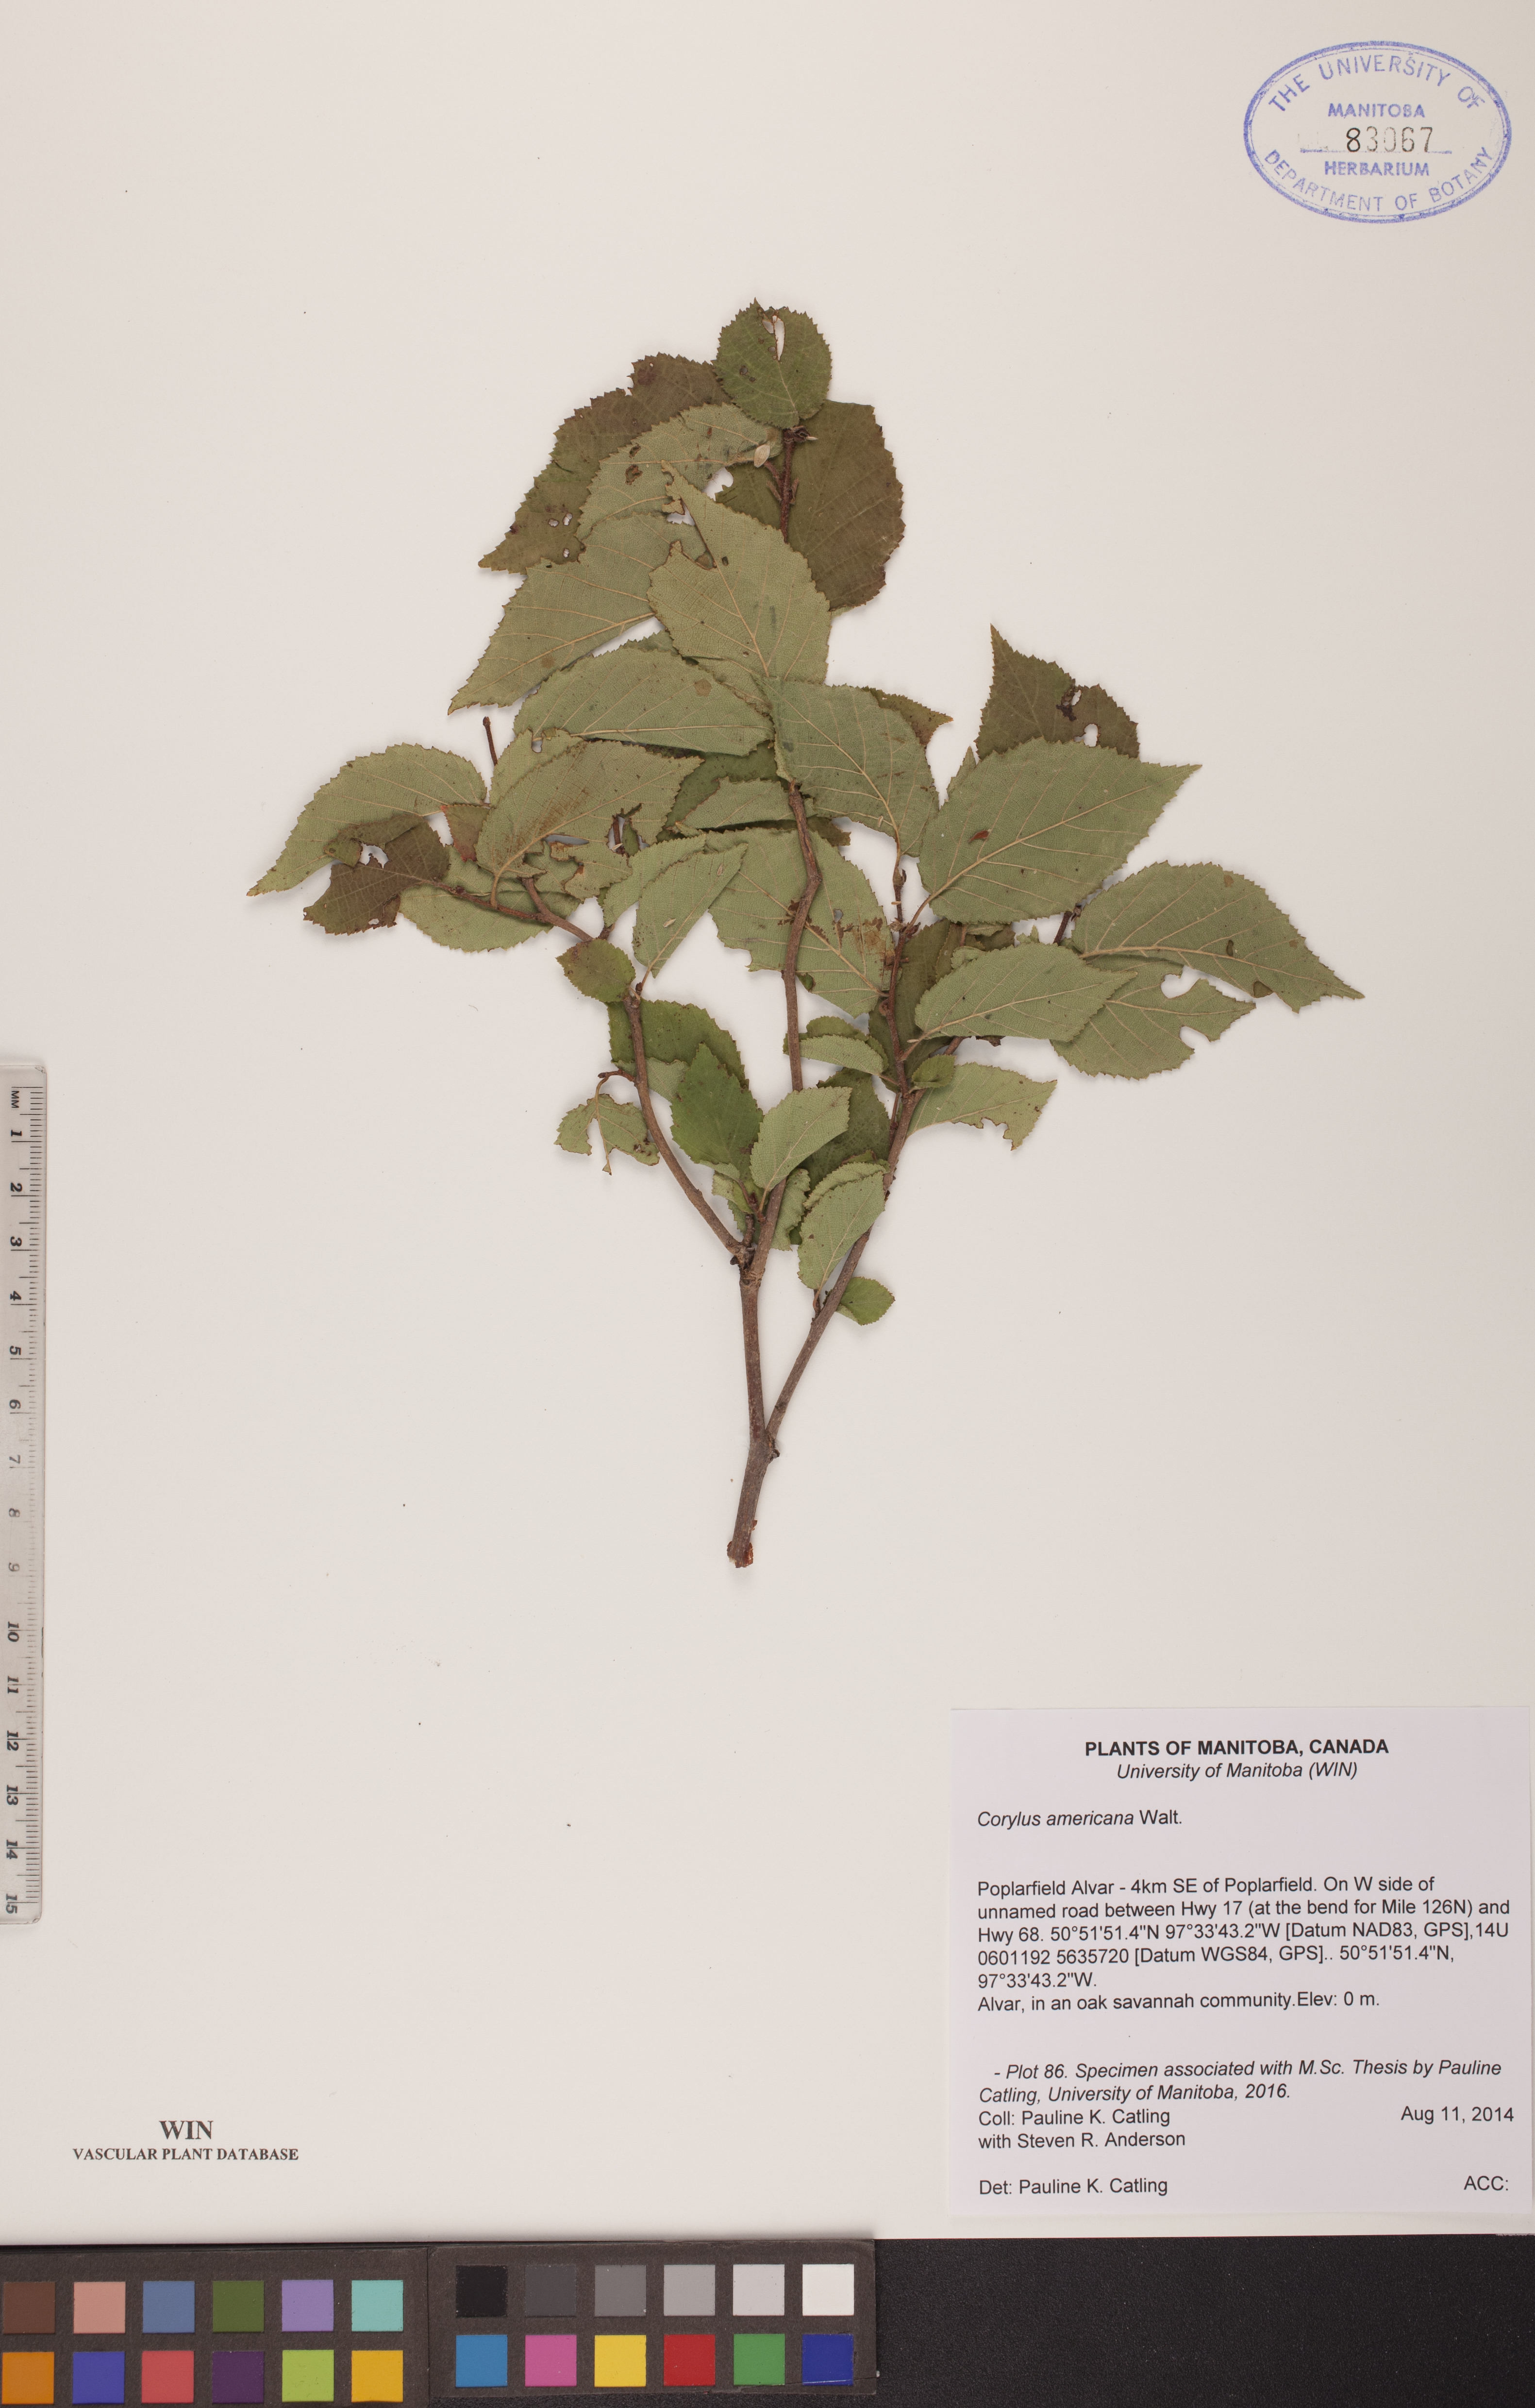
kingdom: Plantae
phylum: Tracheophyta
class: Magnoliopsida
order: Fagales
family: Betulaceae
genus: Corylus
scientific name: Corylus americana
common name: American hazel
